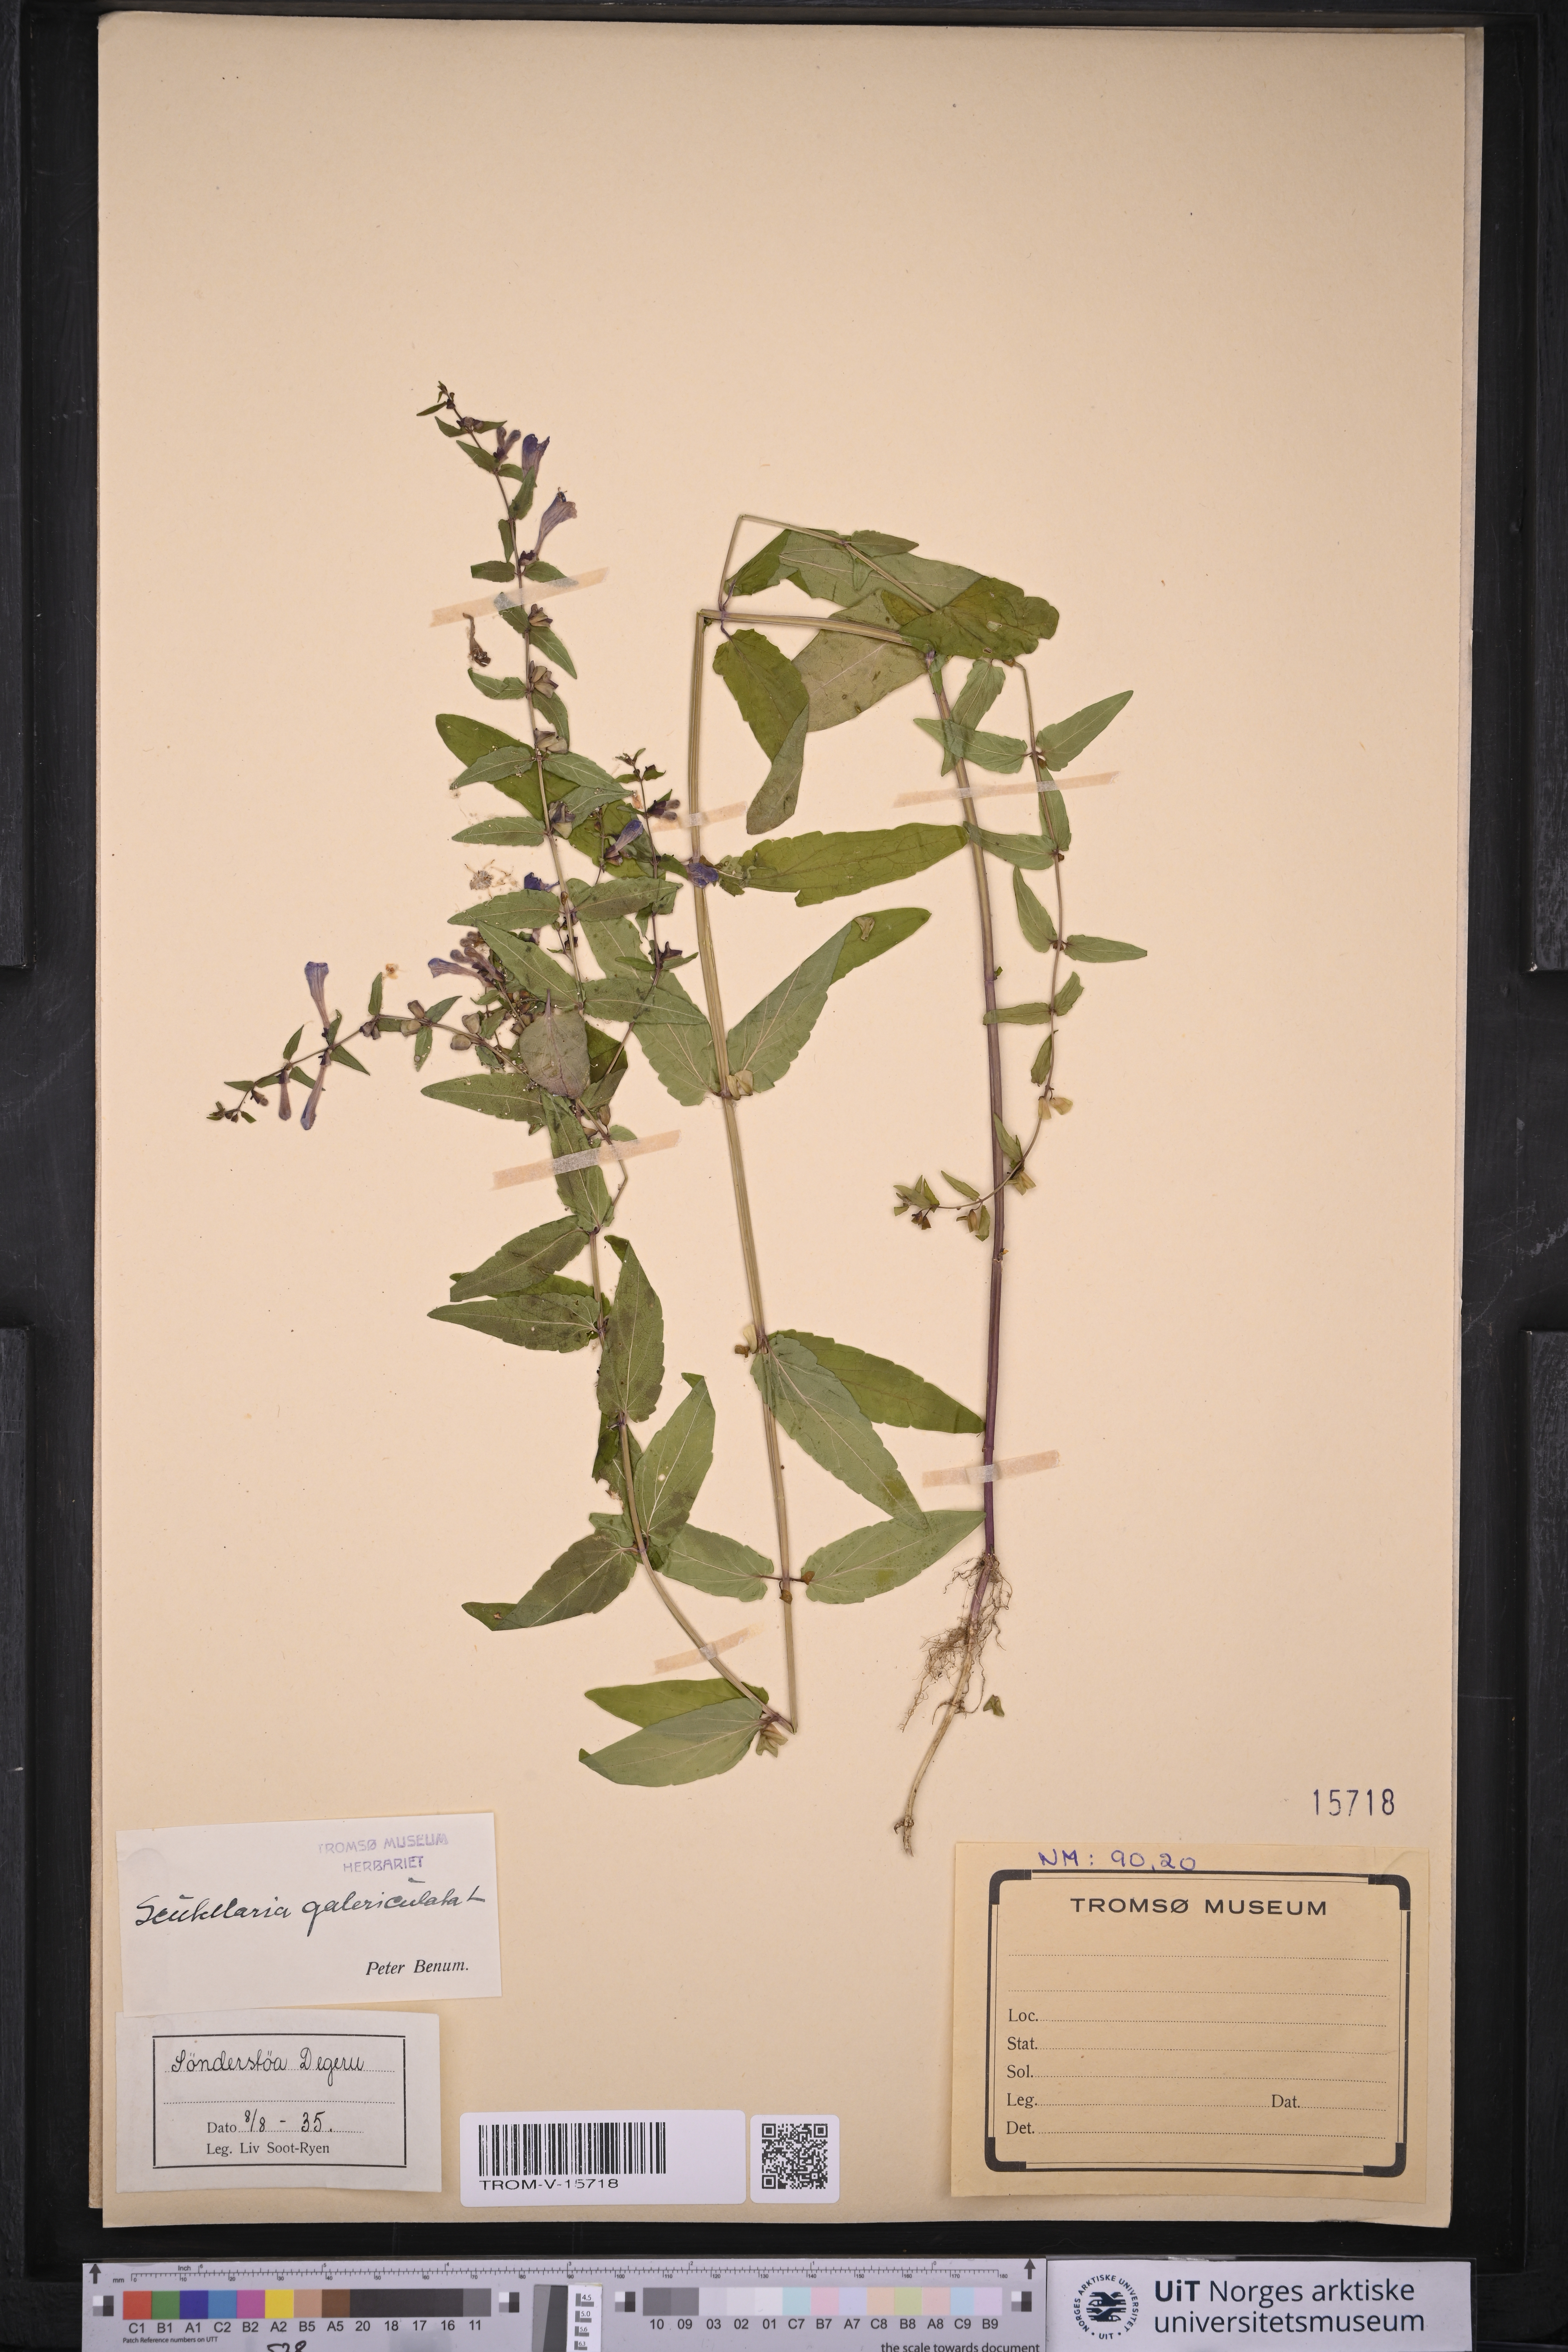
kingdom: Plantae
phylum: Tracheophyta
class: Magnoliopsida
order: Lamiales
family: Lamiaceae
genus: Scutellaria
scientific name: Scutellaria galericulata
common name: Skullcap
